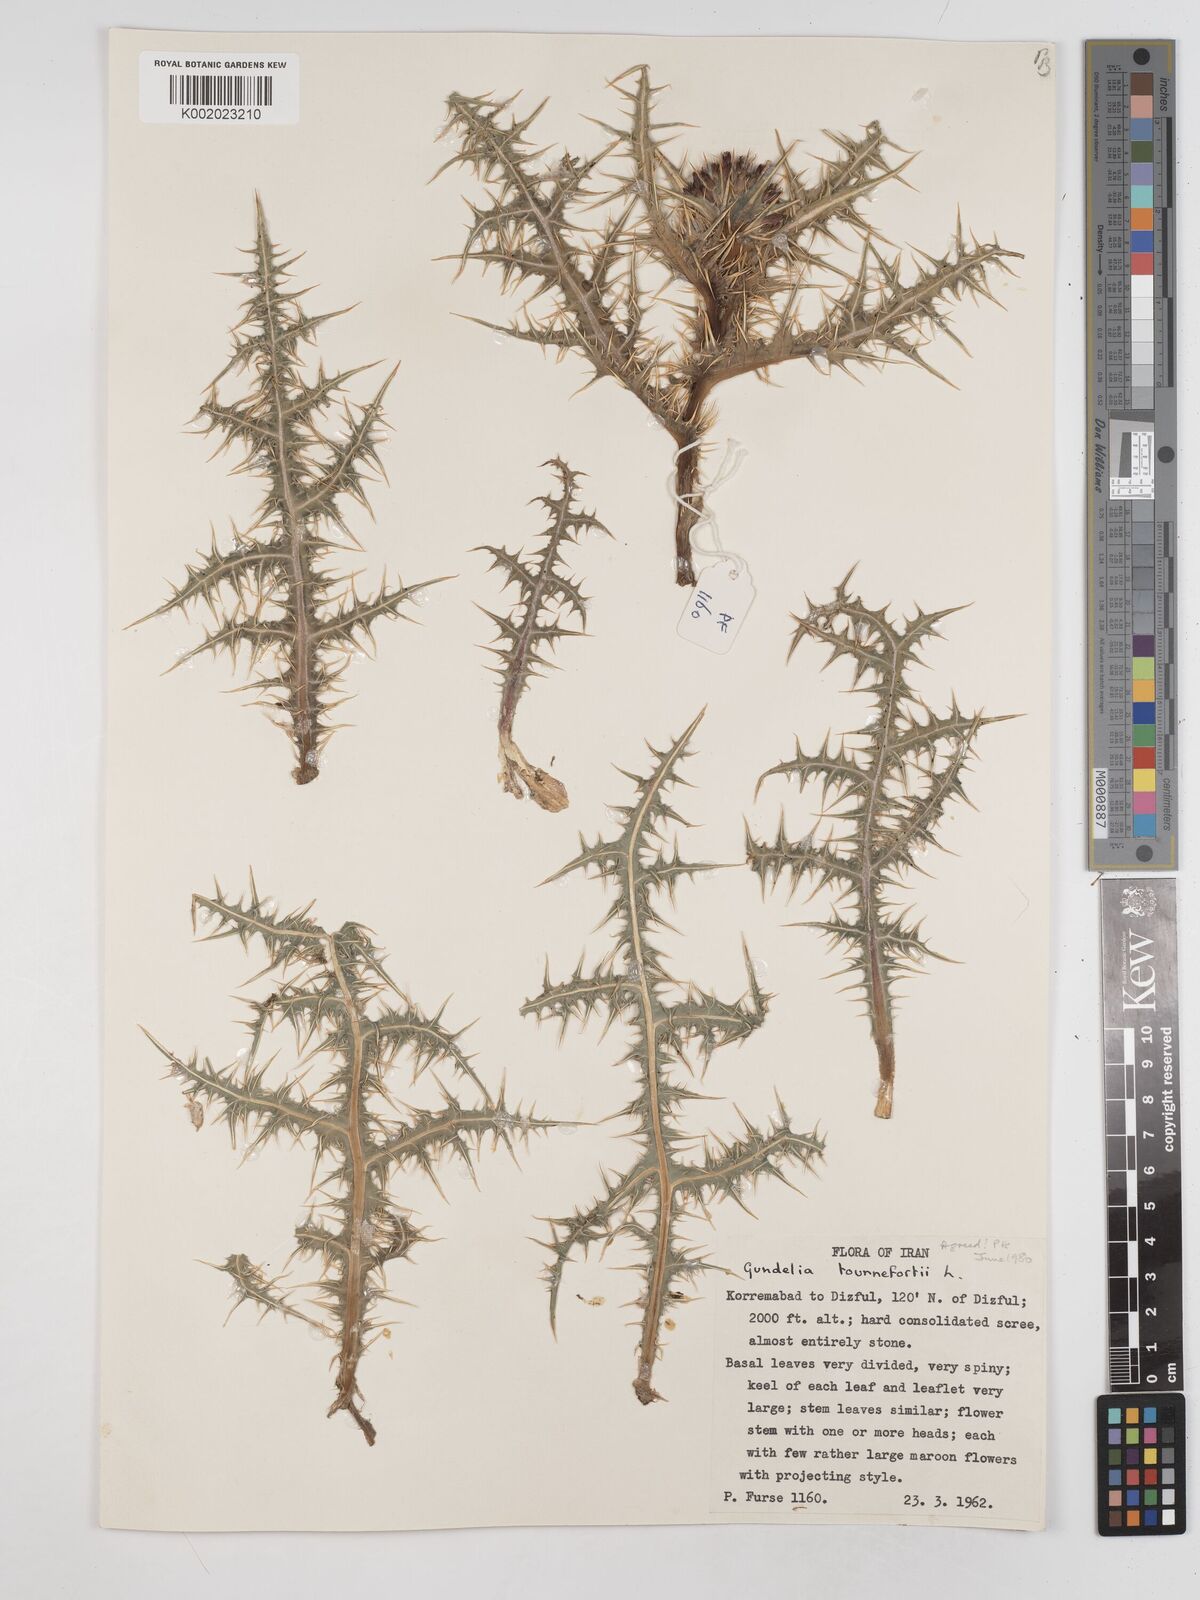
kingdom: Plantae
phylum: Tracheophyta
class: Magnoliopsida
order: Asterales
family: Asteraceae
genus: Gundelia
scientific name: Gundelia tournefortii
